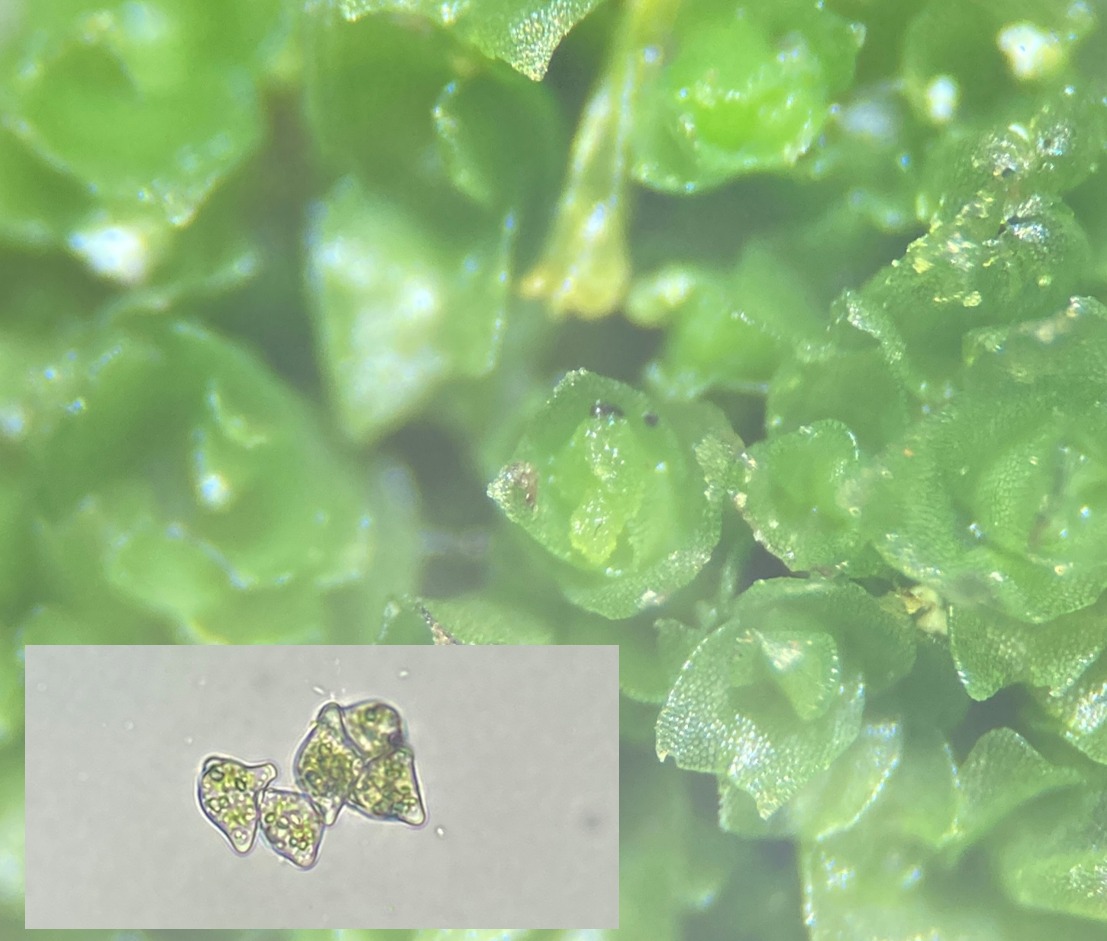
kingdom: Plantae
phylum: Marchantiophyta
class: Jungermanniopsida
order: Jungermanniales
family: Lophoziaceae
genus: Lophozia
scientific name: Lophozia ventricosa
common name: Grønkornet foldbæger
